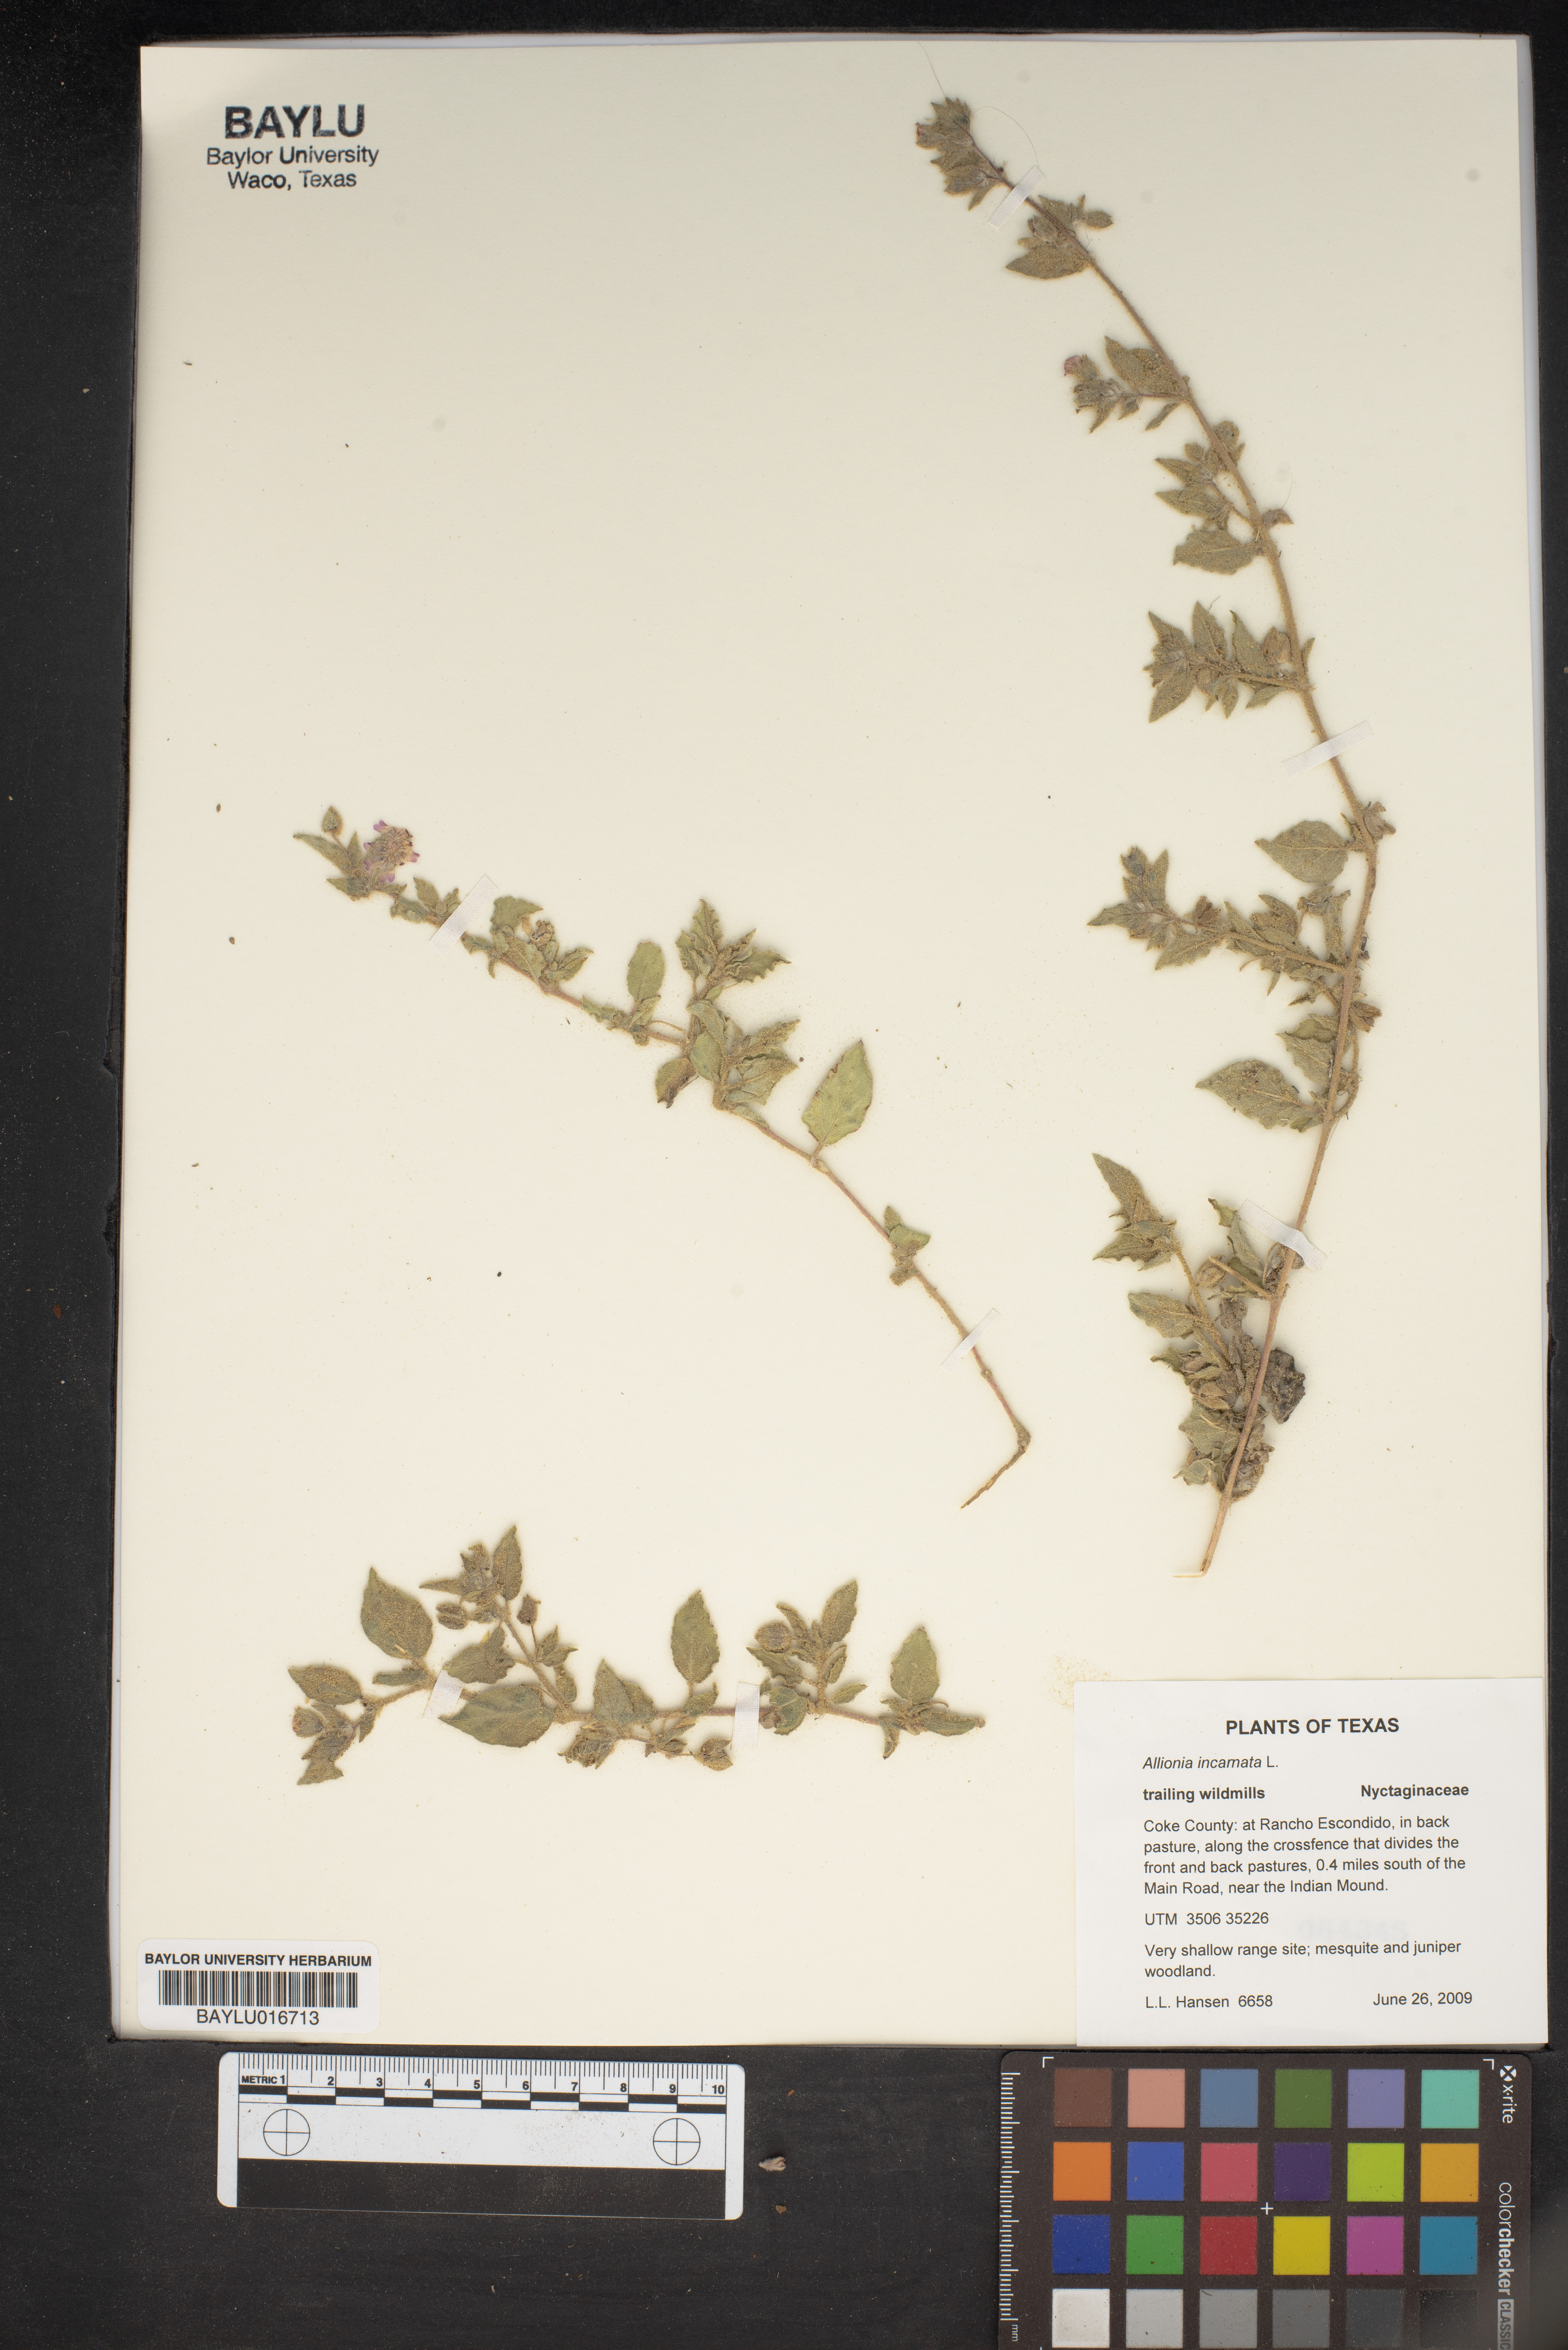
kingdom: Plantae
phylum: Tracheophyta
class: Magnoliopsida
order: Caryophyllales
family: Nyctaginaceae
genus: Allionia
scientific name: Allionia incarnata
